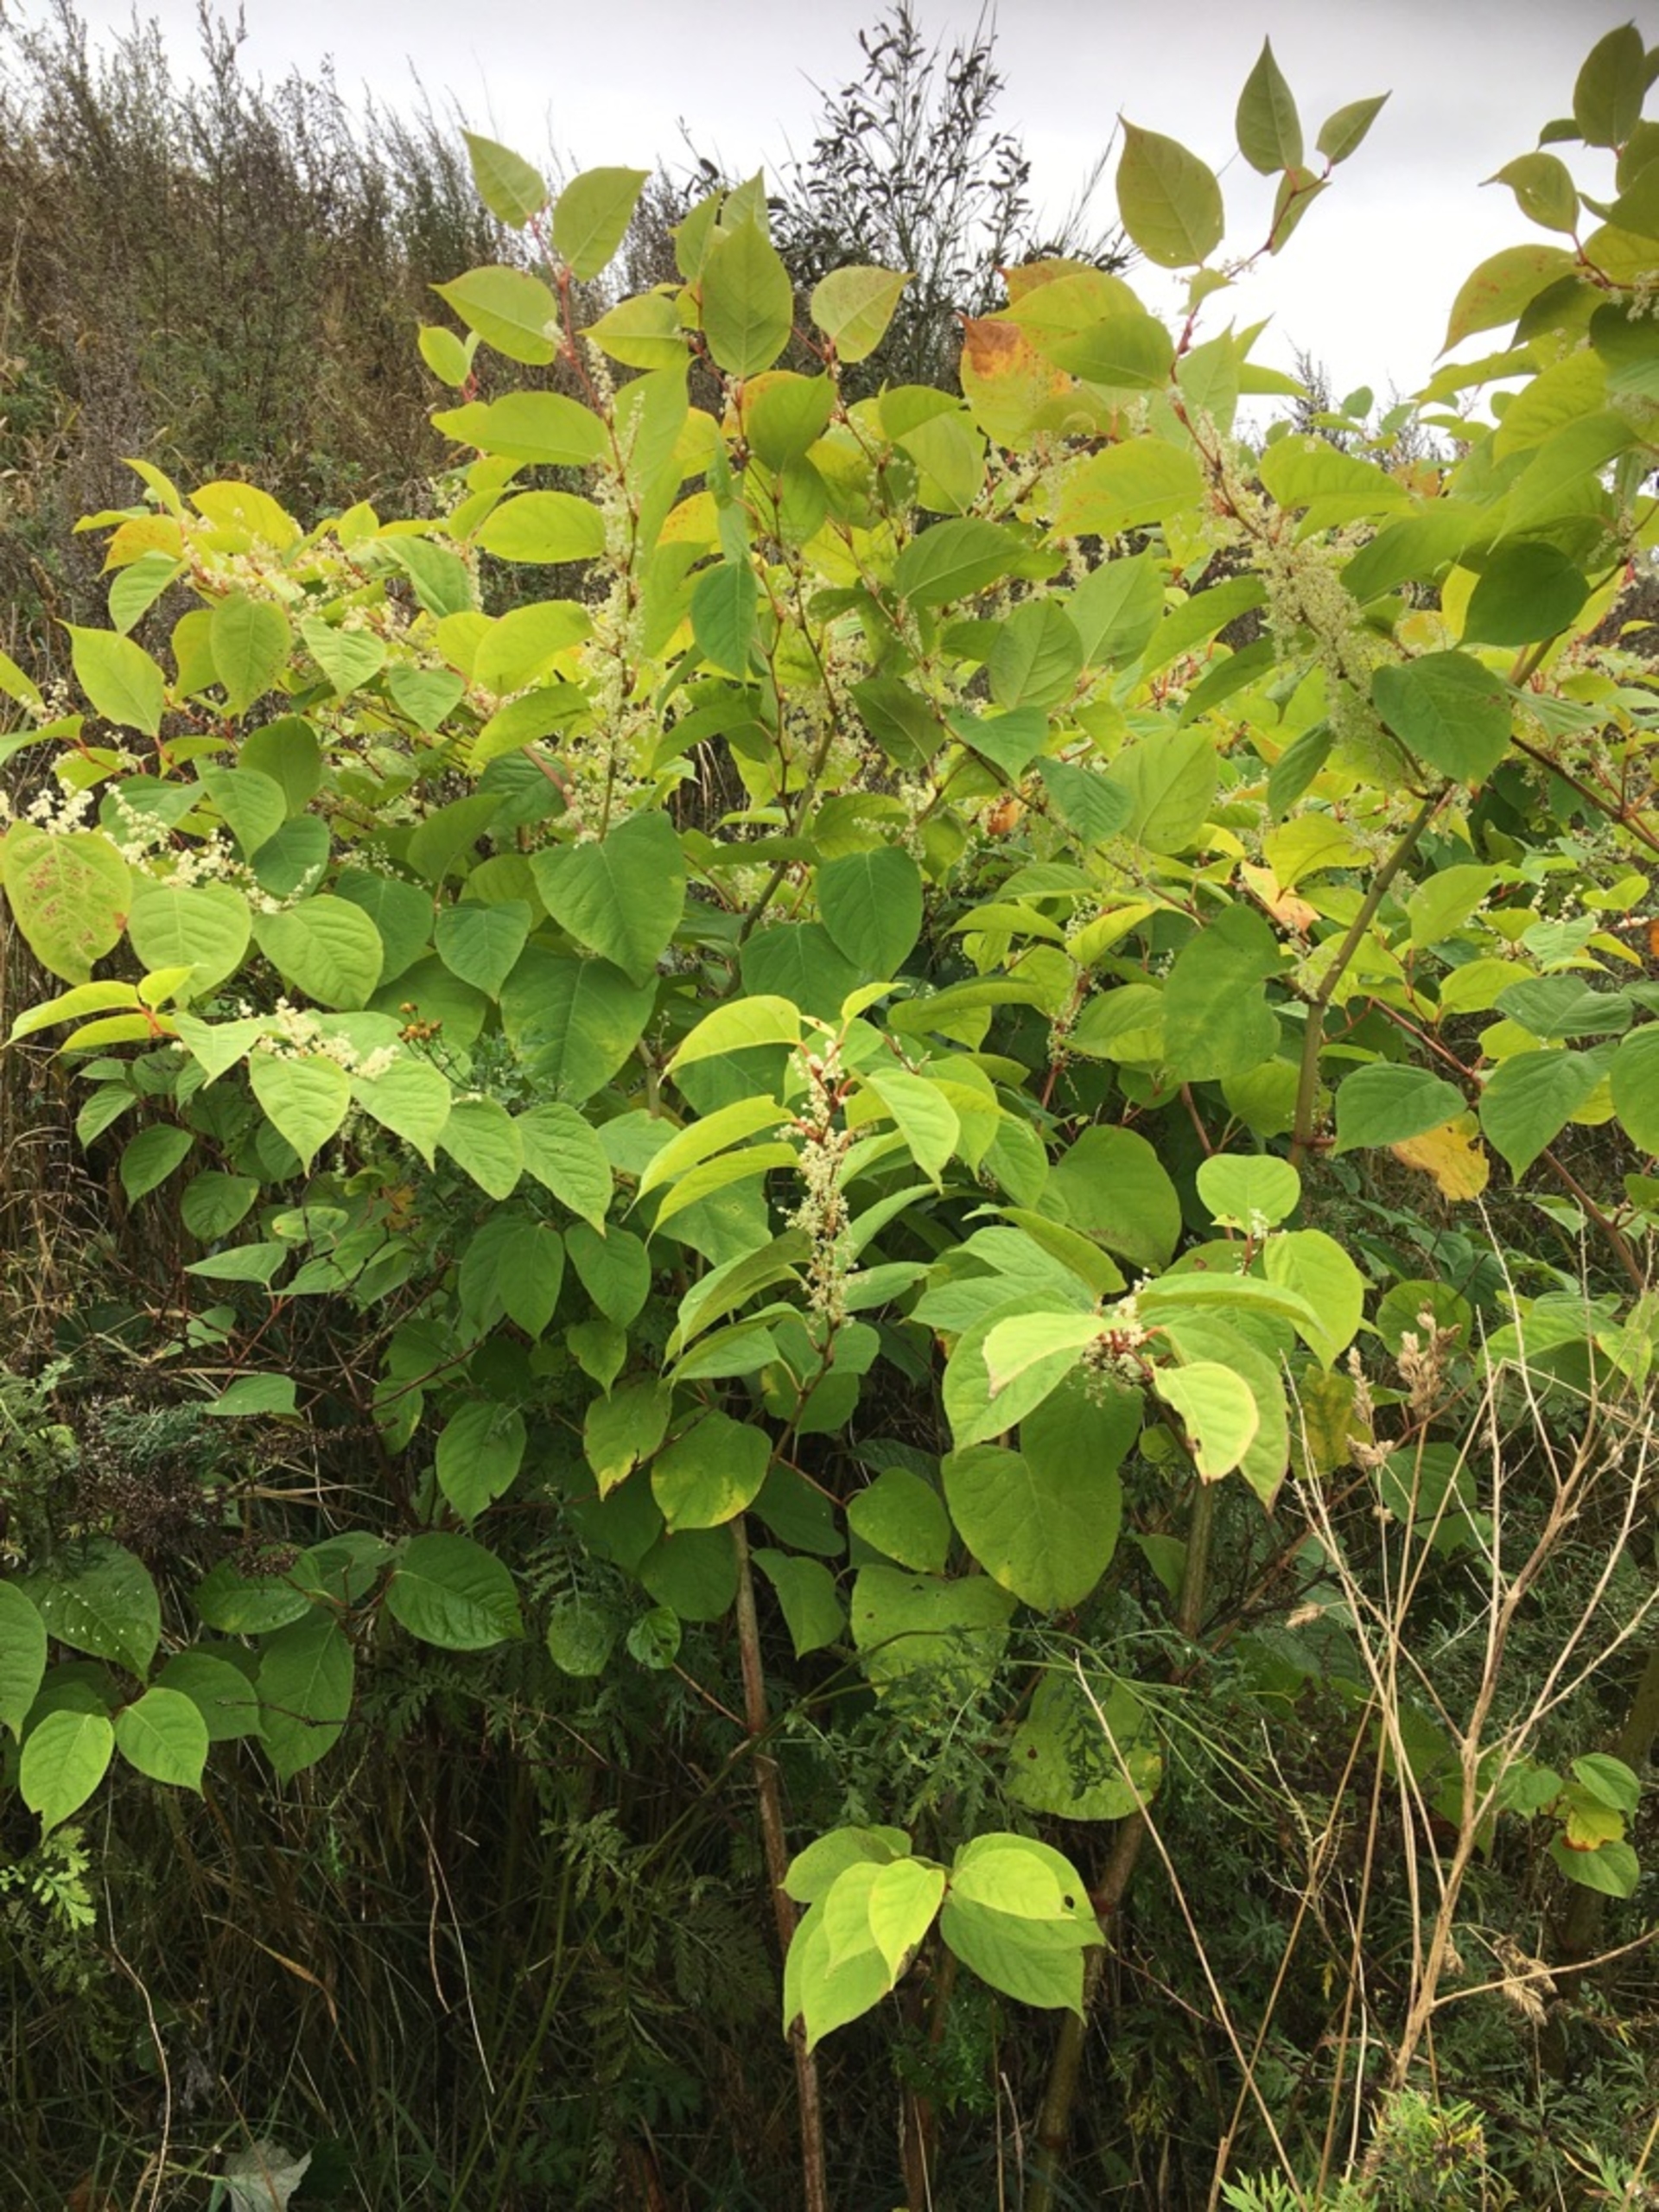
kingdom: Plantae
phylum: Tracheophyta
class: Magnoliopsida
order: Caryophyllales
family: Polygonaceae
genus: Reynoutria
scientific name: Reynoutria japonica
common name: Japan-pileurt
